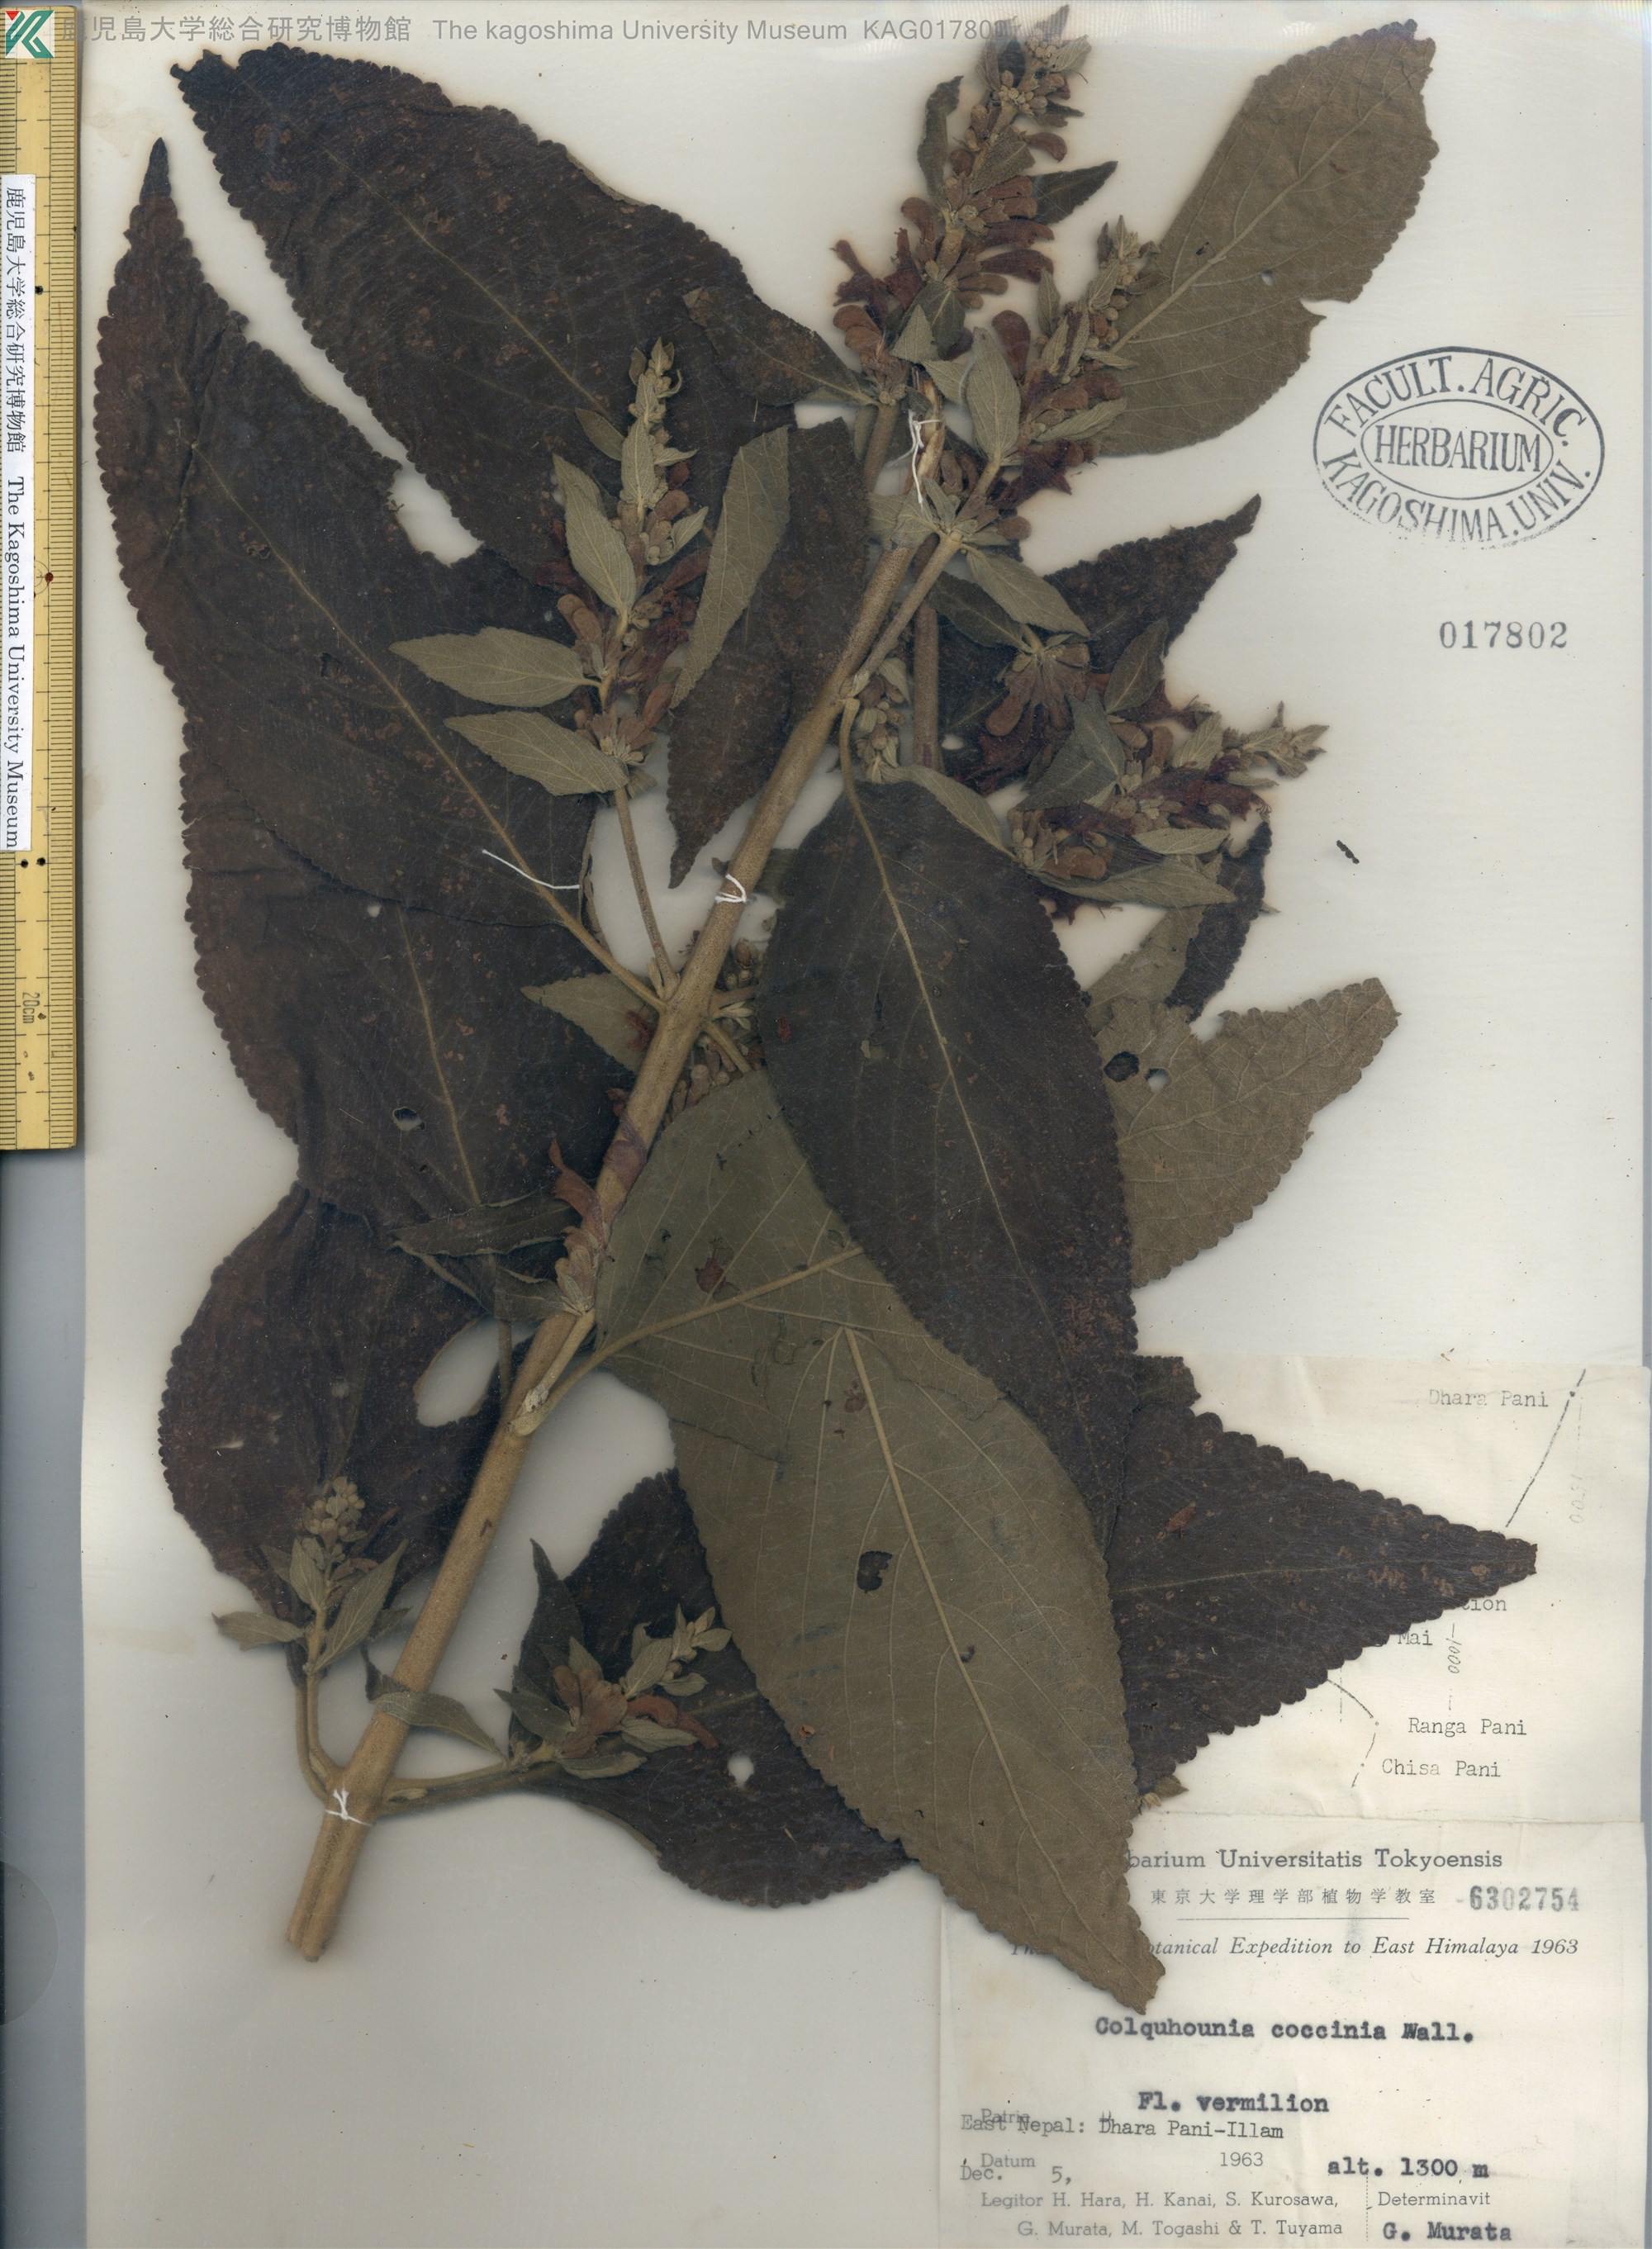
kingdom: Plantae
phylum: Tracheophyta
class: Magnoliopsida
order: Lamiales
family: Lamiaceae
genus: Colquhounia
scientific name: Colquhounia coccinea
